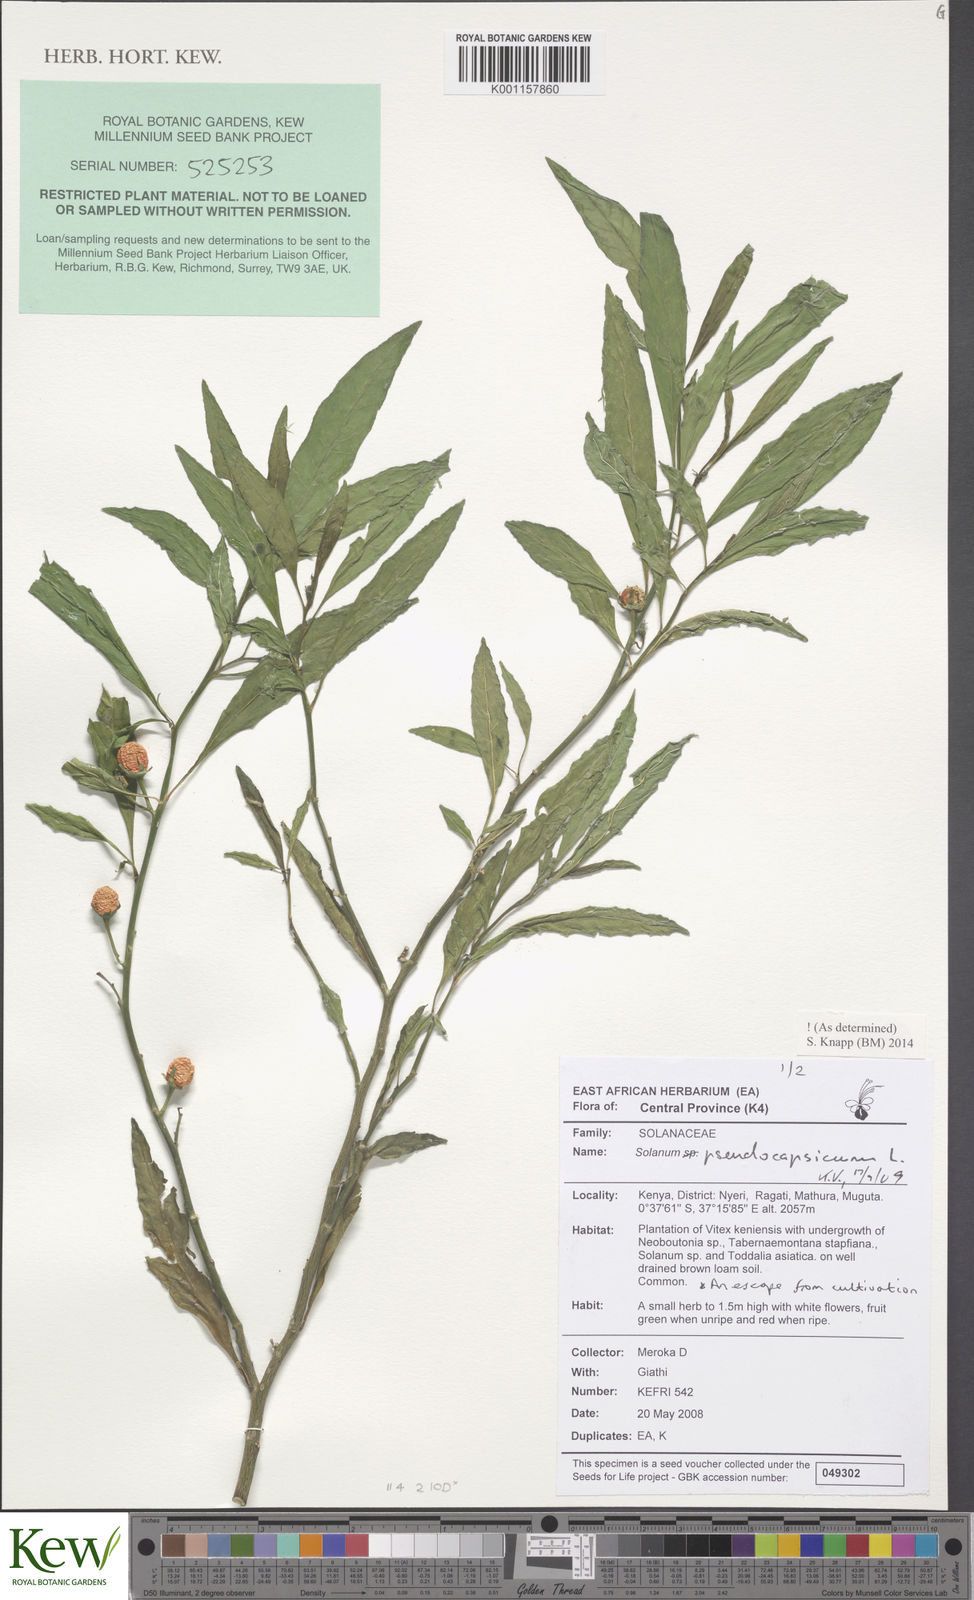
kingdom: Plantae
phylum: Tracheophyta
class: Magnoliopsida
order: Solanales
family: Solanaceae
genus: Solanum
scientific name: Solanum pseudospinosum
